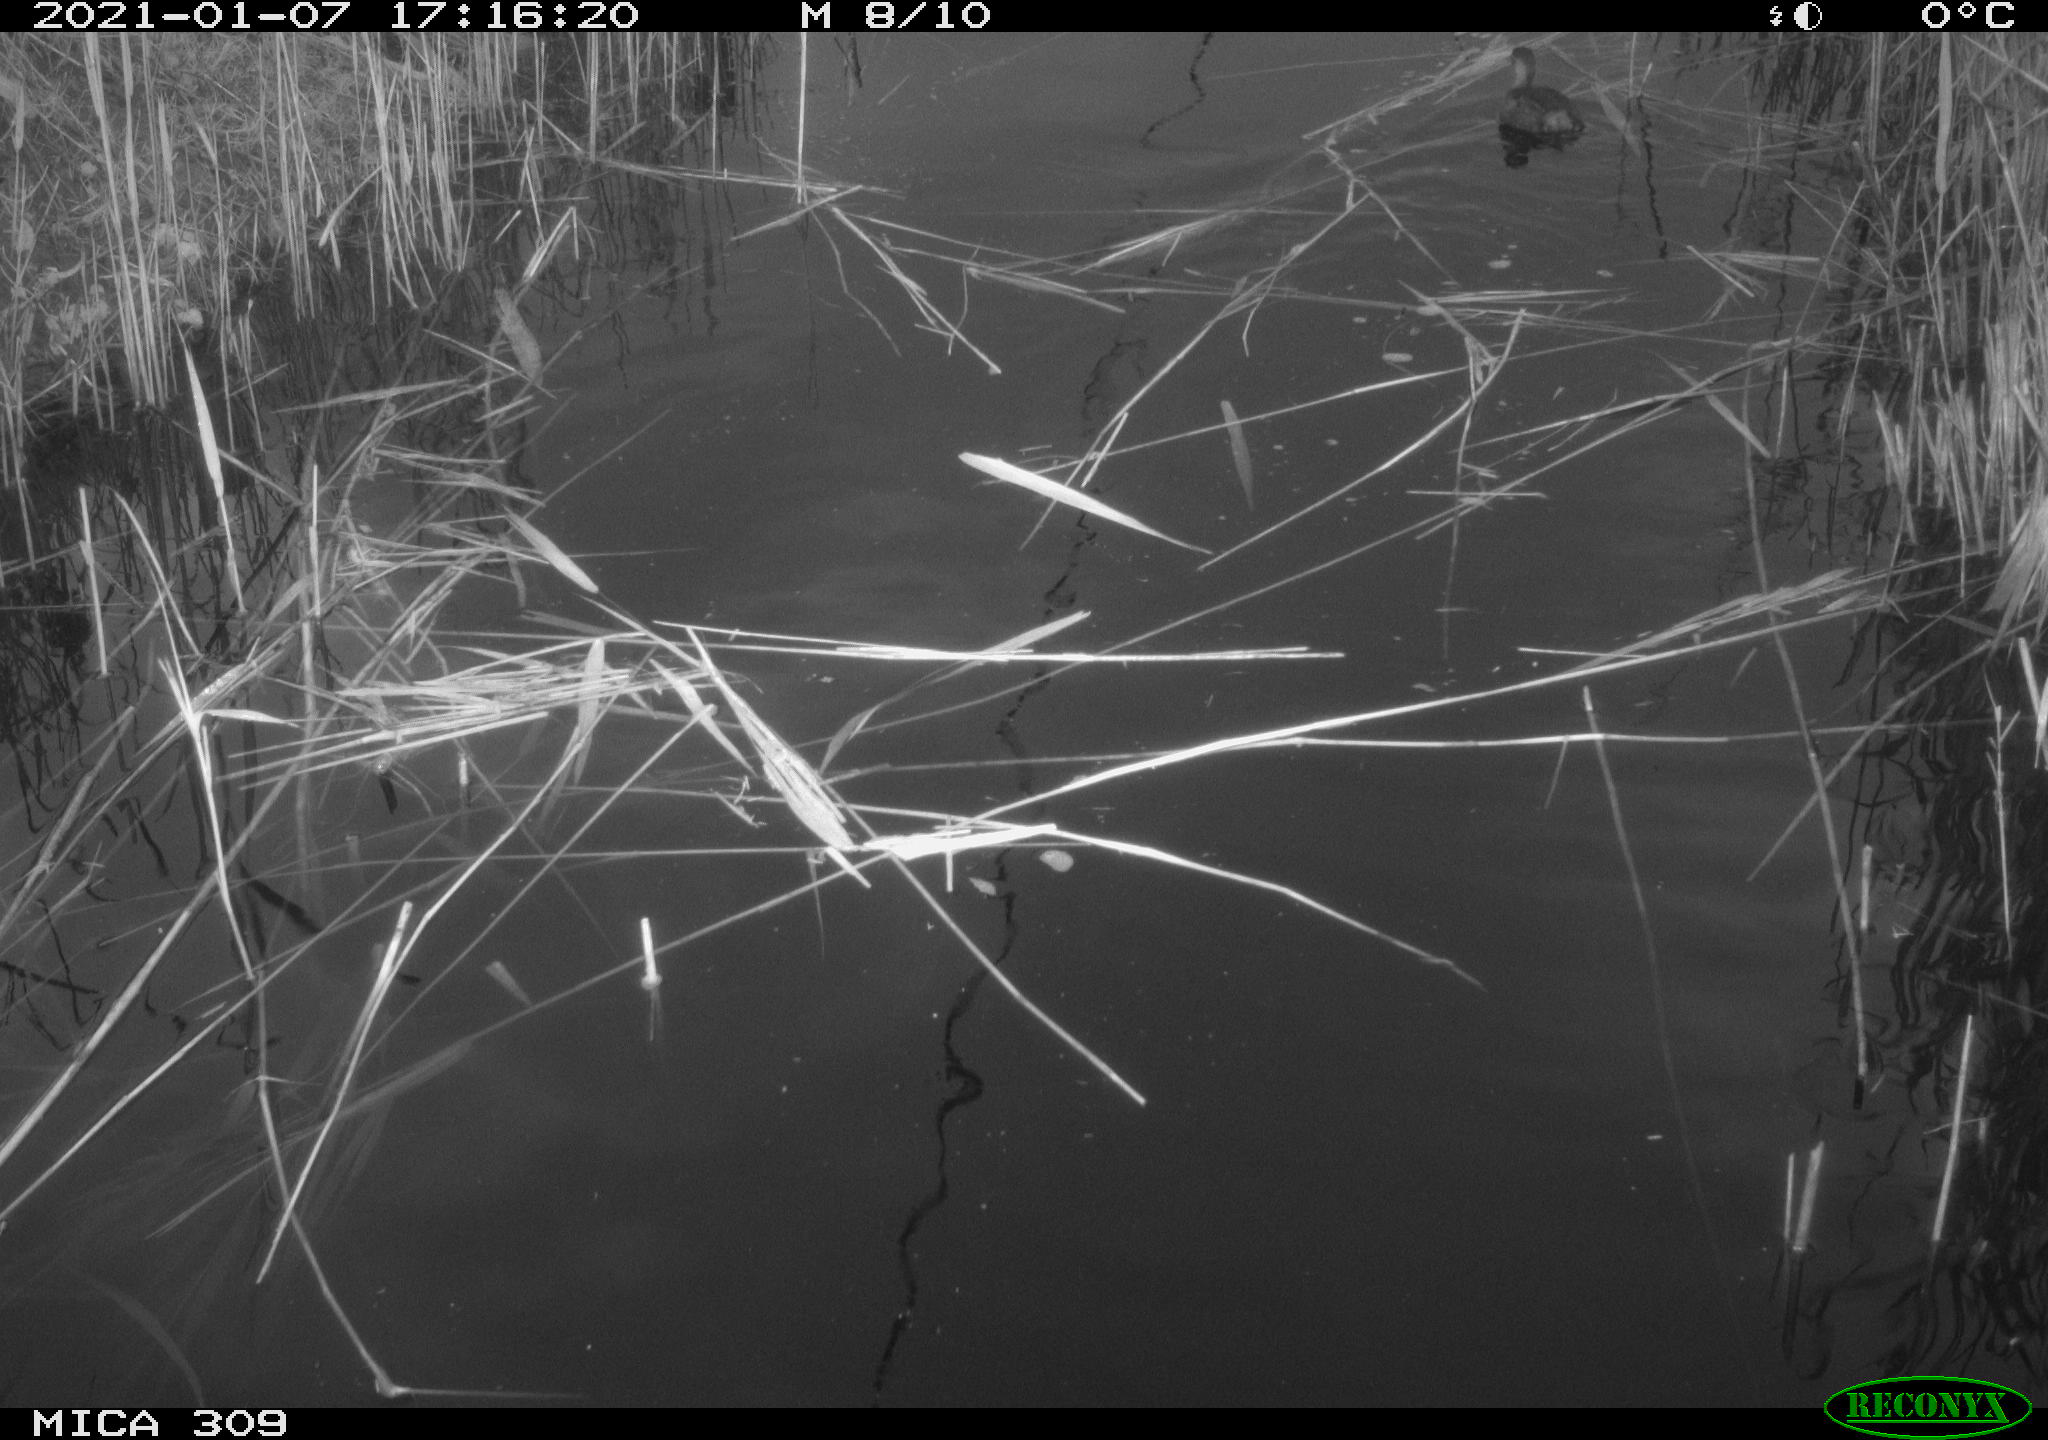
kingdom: Animalia
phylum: Chordata
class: Aves
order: Podicipediformes
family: Podicipedidae
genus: Tachybaptus
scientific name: Tachybaptus ruficollis
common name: Little grebe
